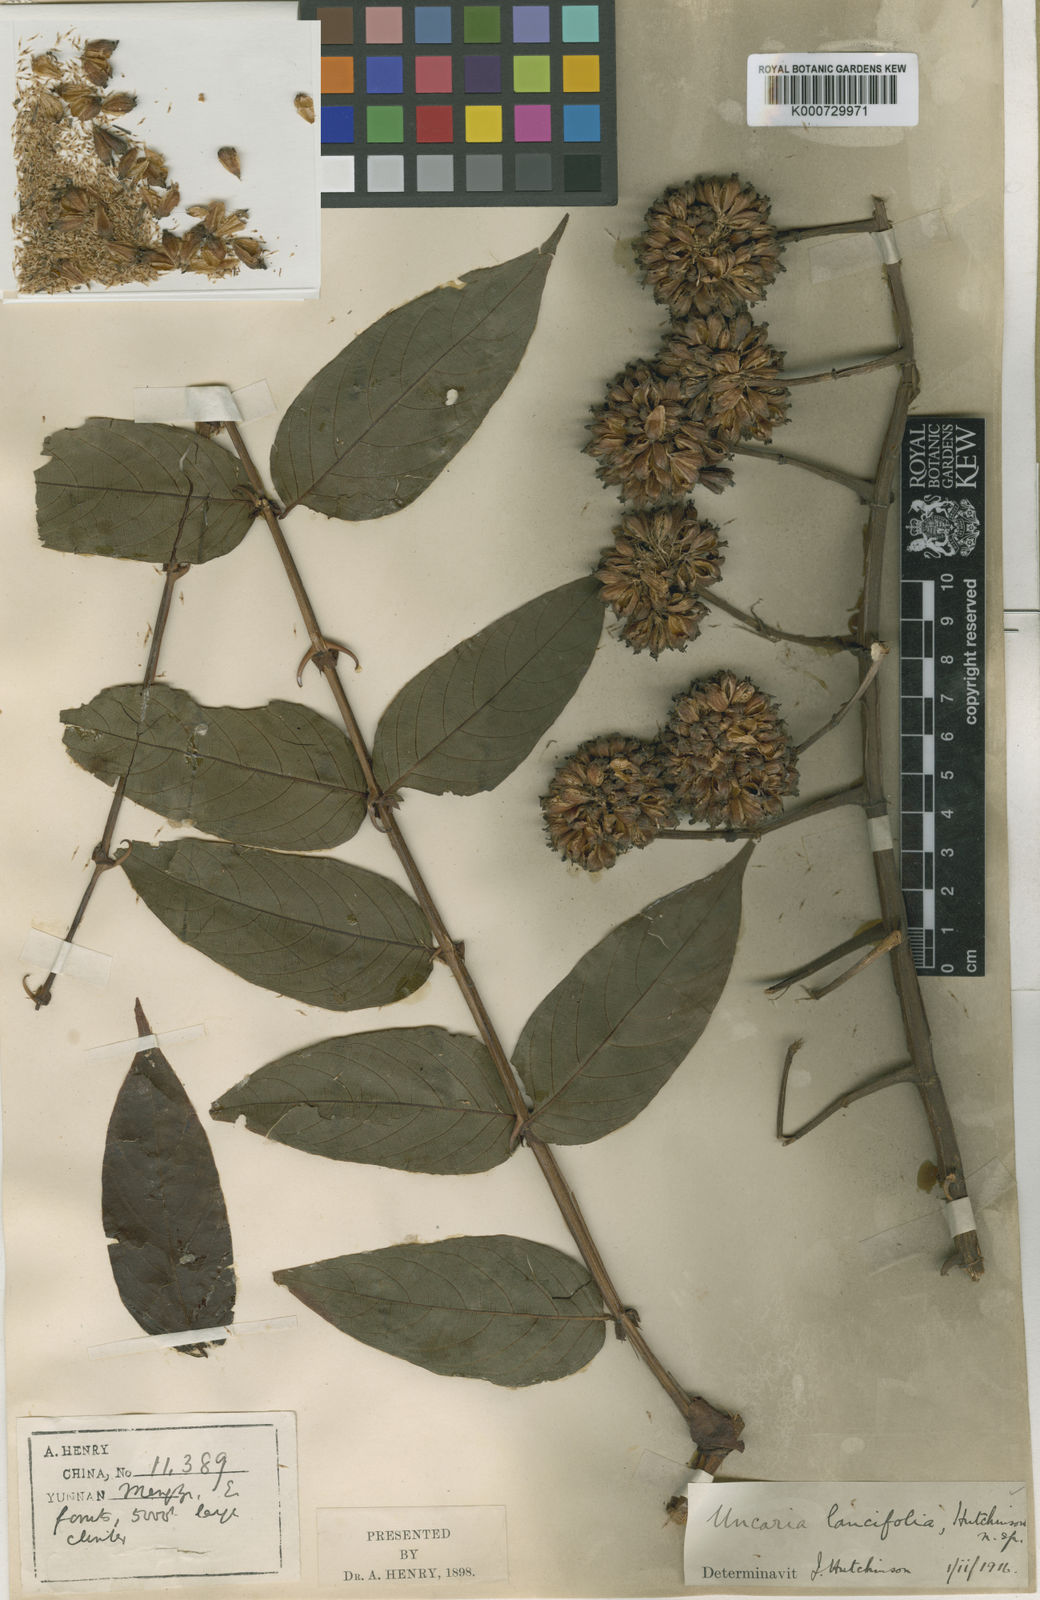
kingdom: Plantae
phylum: Tracheophyta
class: Magnoliopsida
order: Gentianales
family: Rubiaceae
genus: Uncaria
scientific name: Uncaria lancifolia
